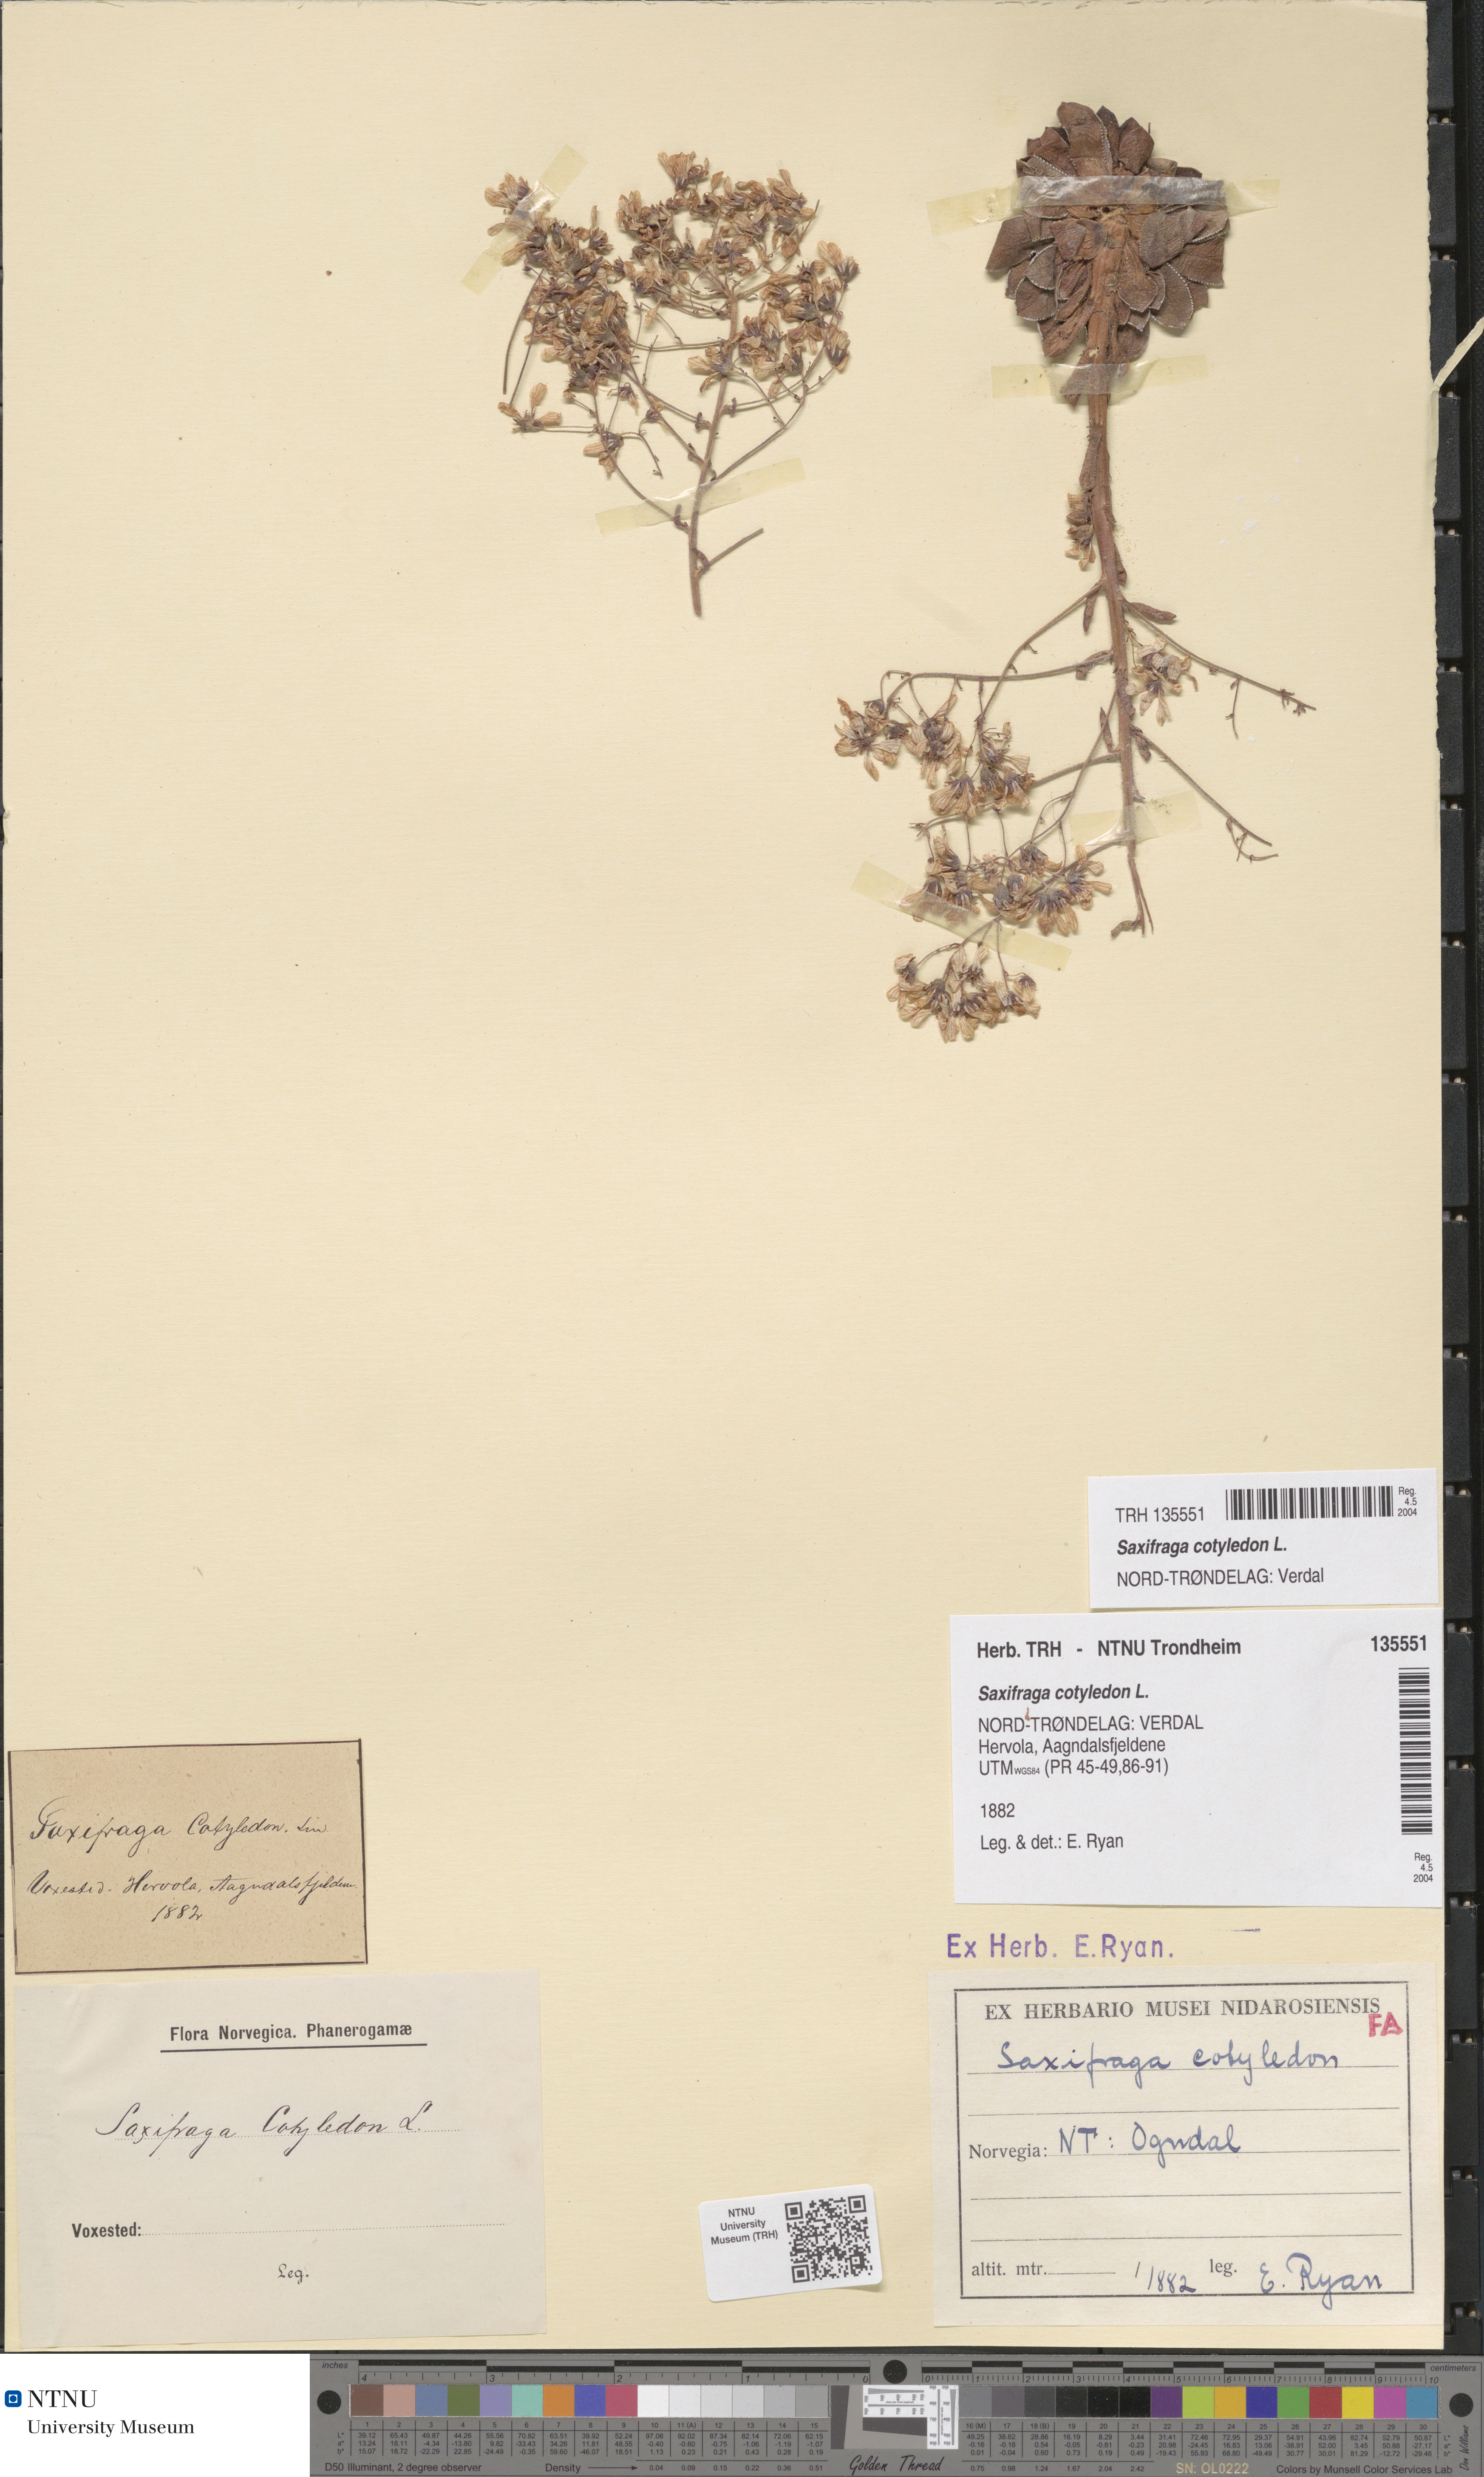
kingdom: Plantae
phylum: Tracheophyta
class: Magnoliopsida
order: Saxifragales
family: Saxifragaceae
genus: Saxifraga
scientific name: Saxifraga cotyledon
